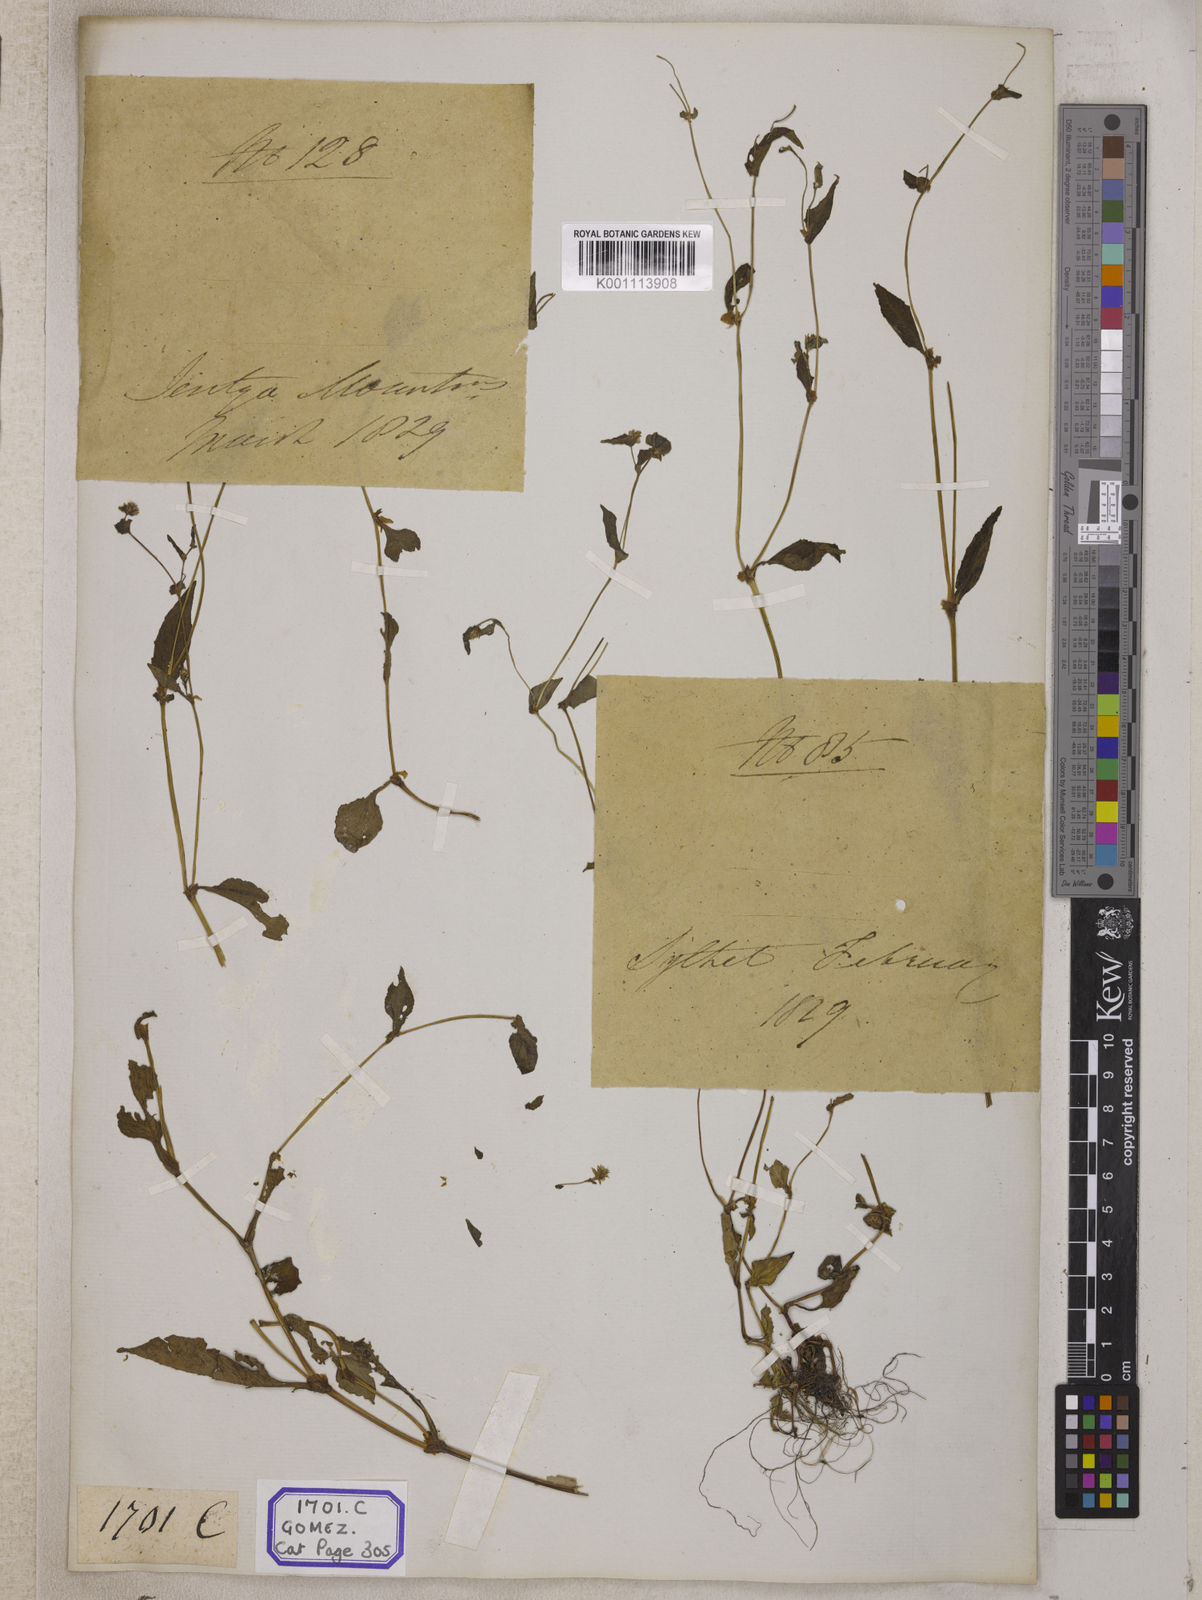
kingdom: Plantae
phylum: Tracheophyta
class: Magnoliopsida
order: Caryophyllales
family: Polygonaceae
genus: Persicaria
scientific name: Persicaria nepalensis
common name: Nepal persicaria
